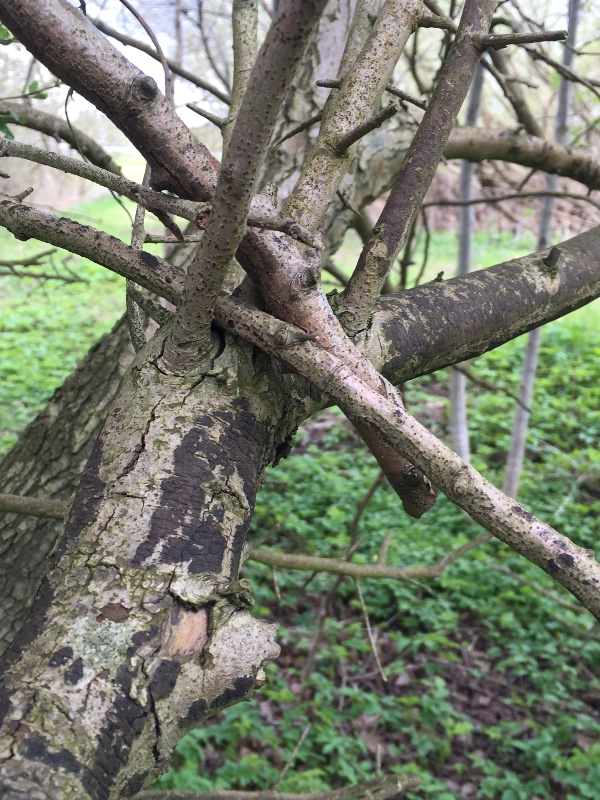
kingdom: Fungi
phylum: Ascomycota
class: Sordariomycetes
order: Xylariales
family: Diatrypaceae
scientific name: Diatrypaceae
